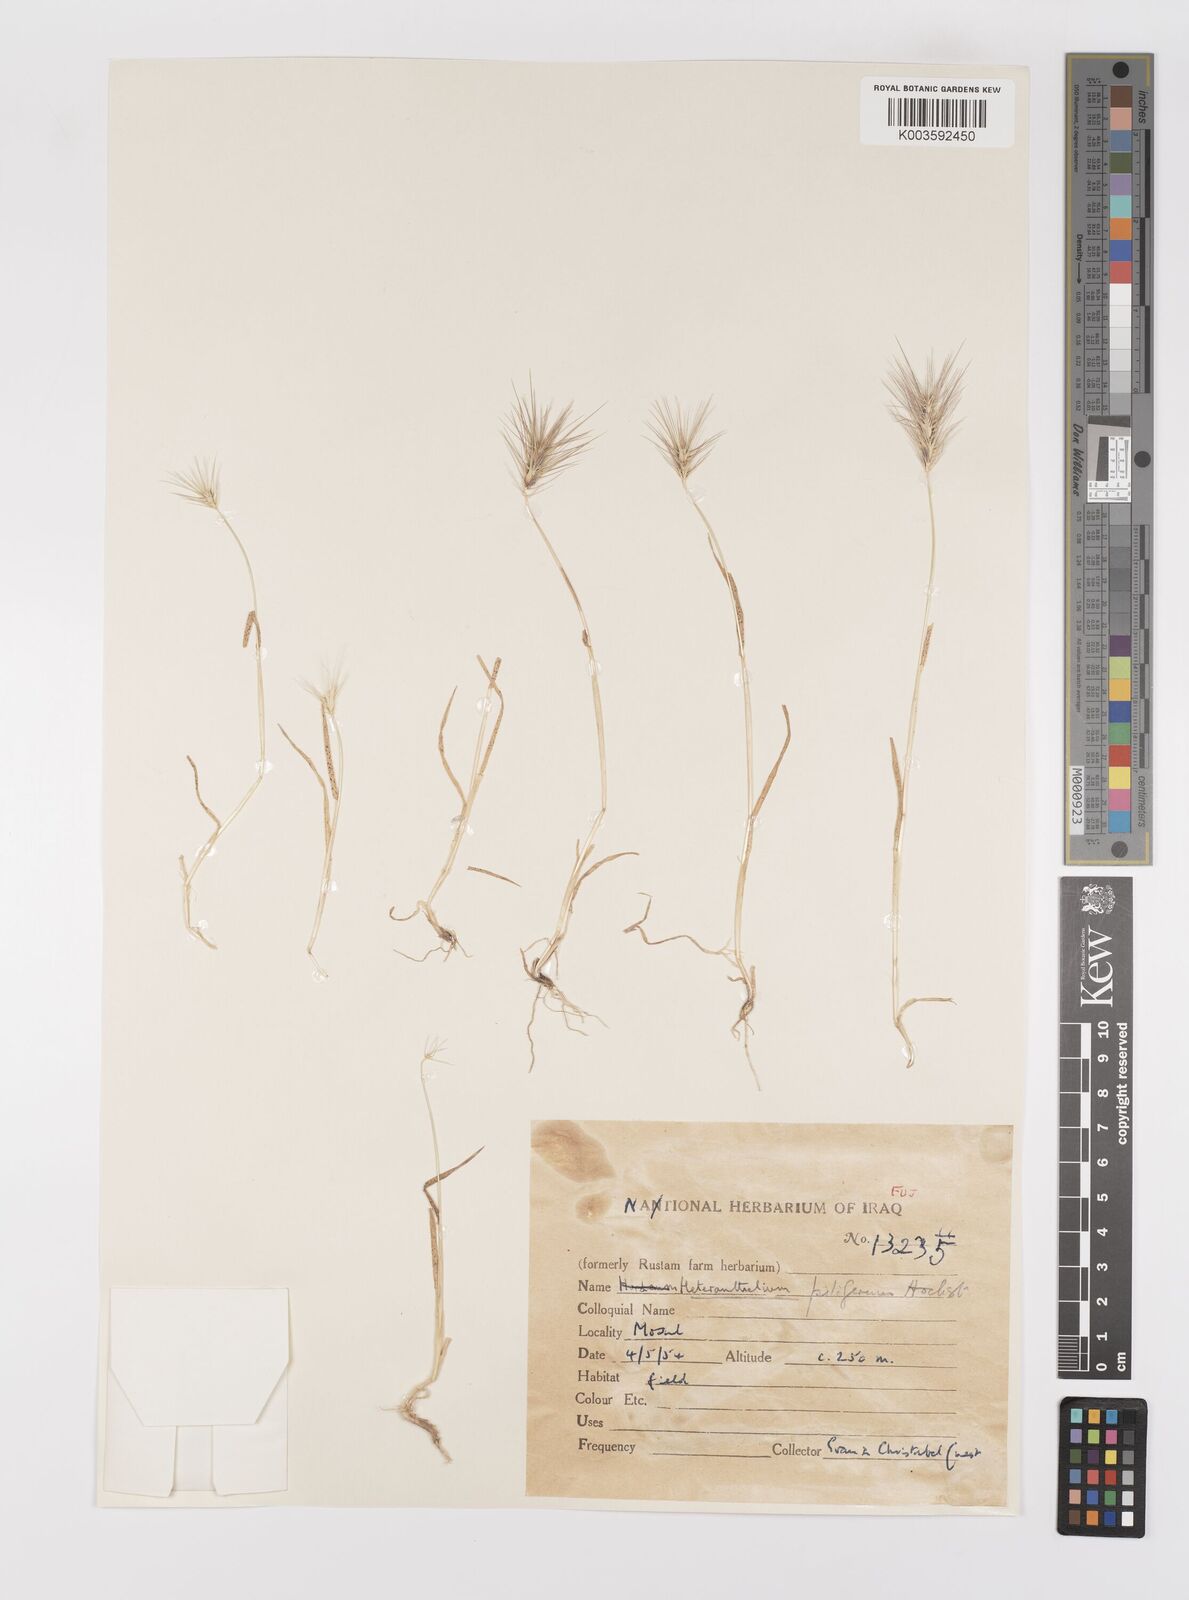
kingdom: Plantae
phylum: Tracheophyta
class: Liliopsida
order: Poales
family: Poaceae
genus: Heteranthelium
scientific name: Heteranthelium piliferum
